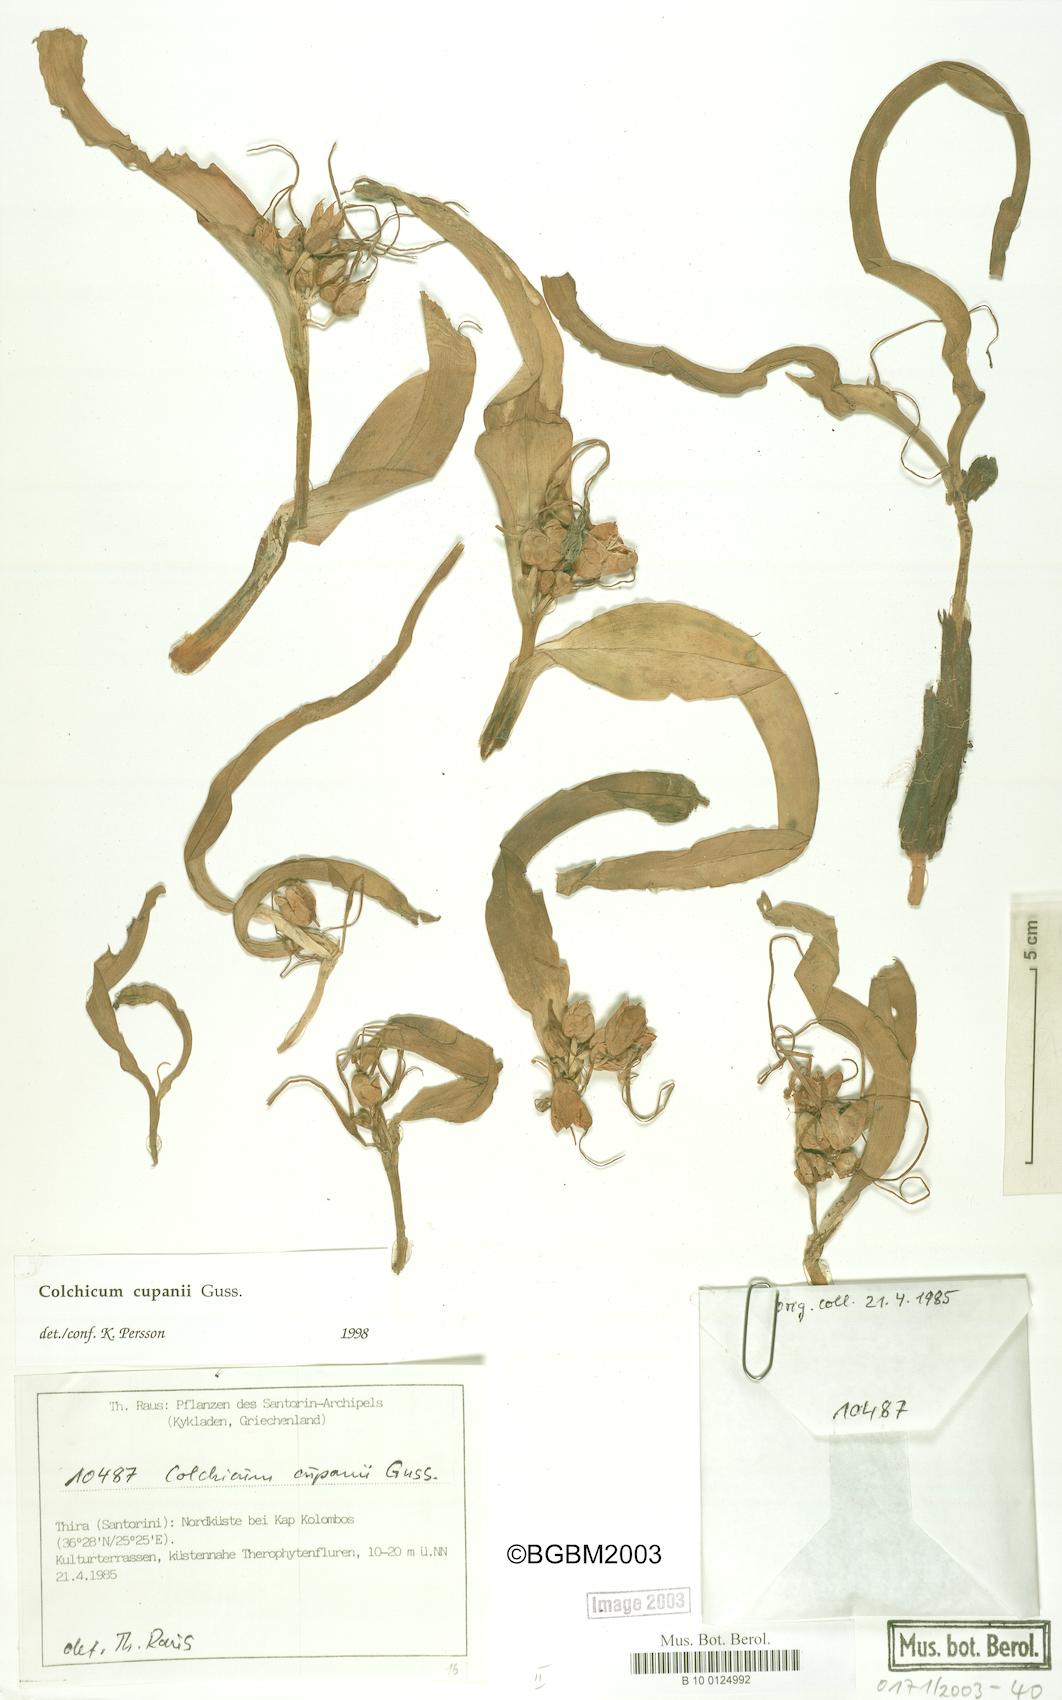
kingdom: Plantae
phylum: Tracheophyta
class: Liliopsida
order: Liliales
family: Colchicaceae
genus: Colchicum
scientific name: Colchicum cupanii
